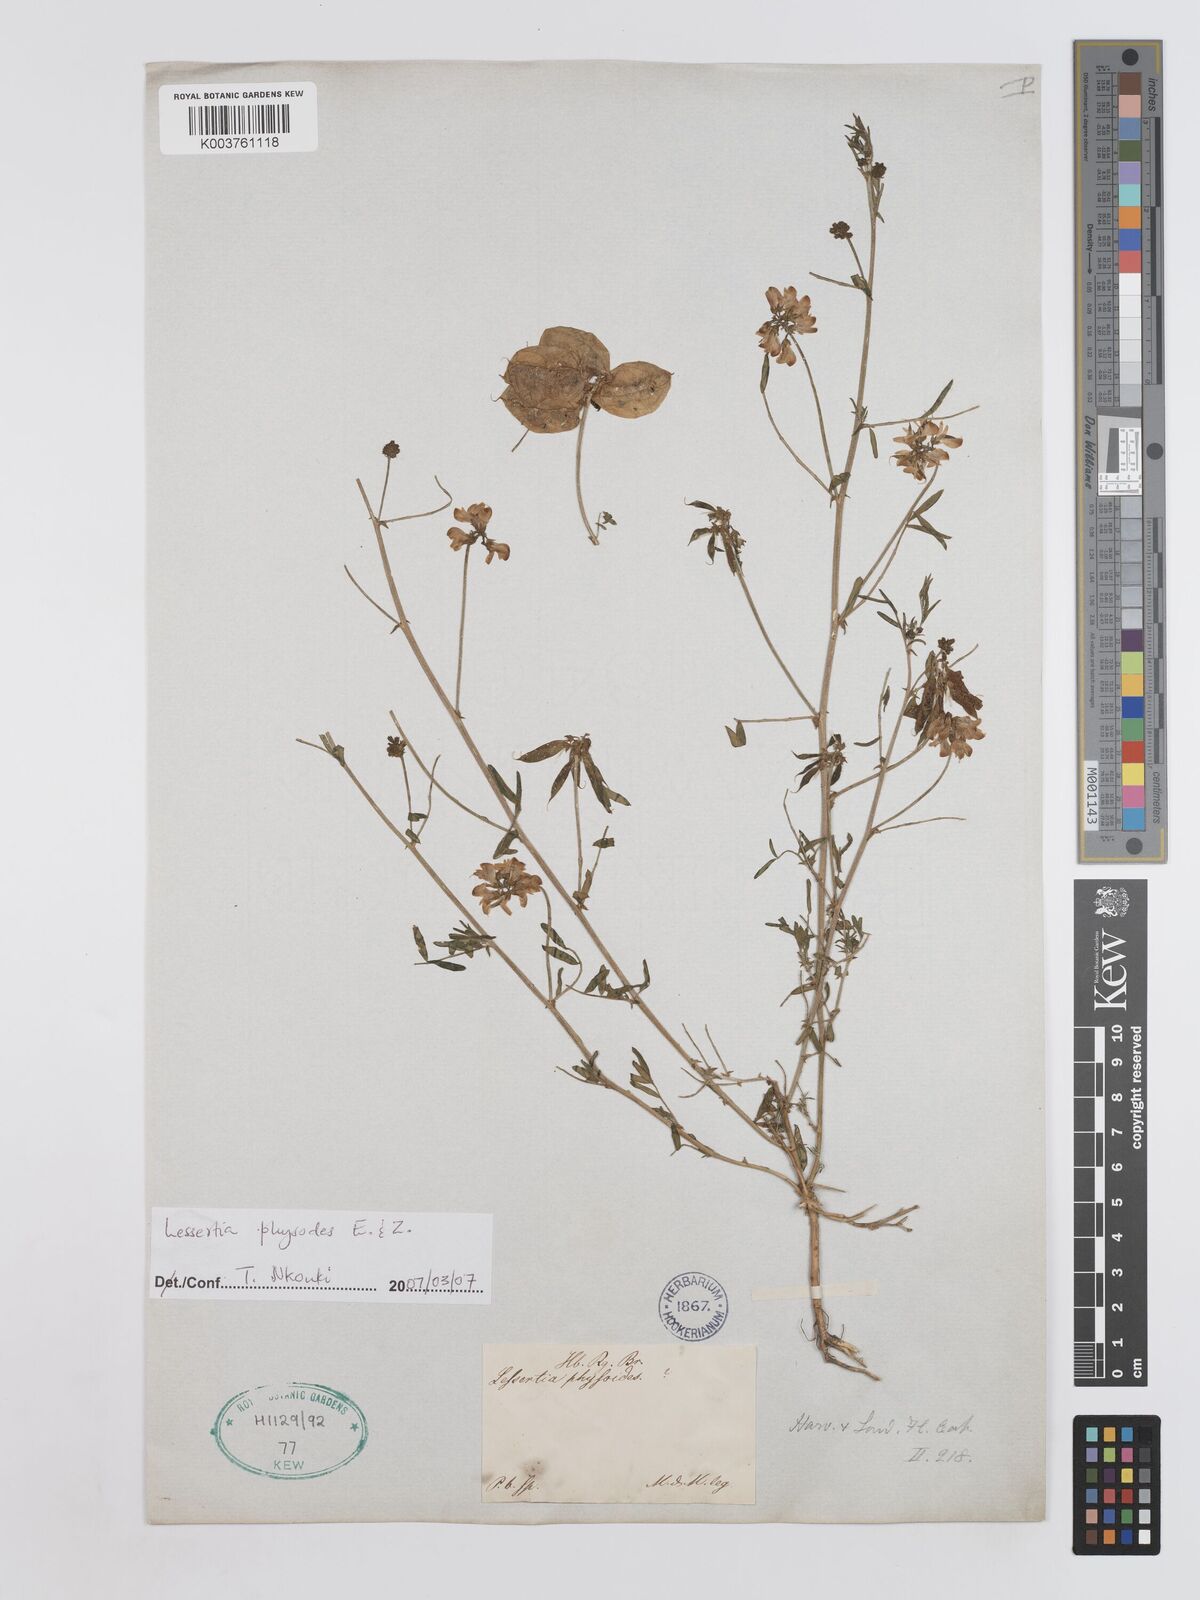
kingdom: Plantae
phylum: Tracheophyta
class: Magnoliopsida
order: Fabales
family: Fabaceae
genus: Lessertia
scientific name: Lessertia physodes
